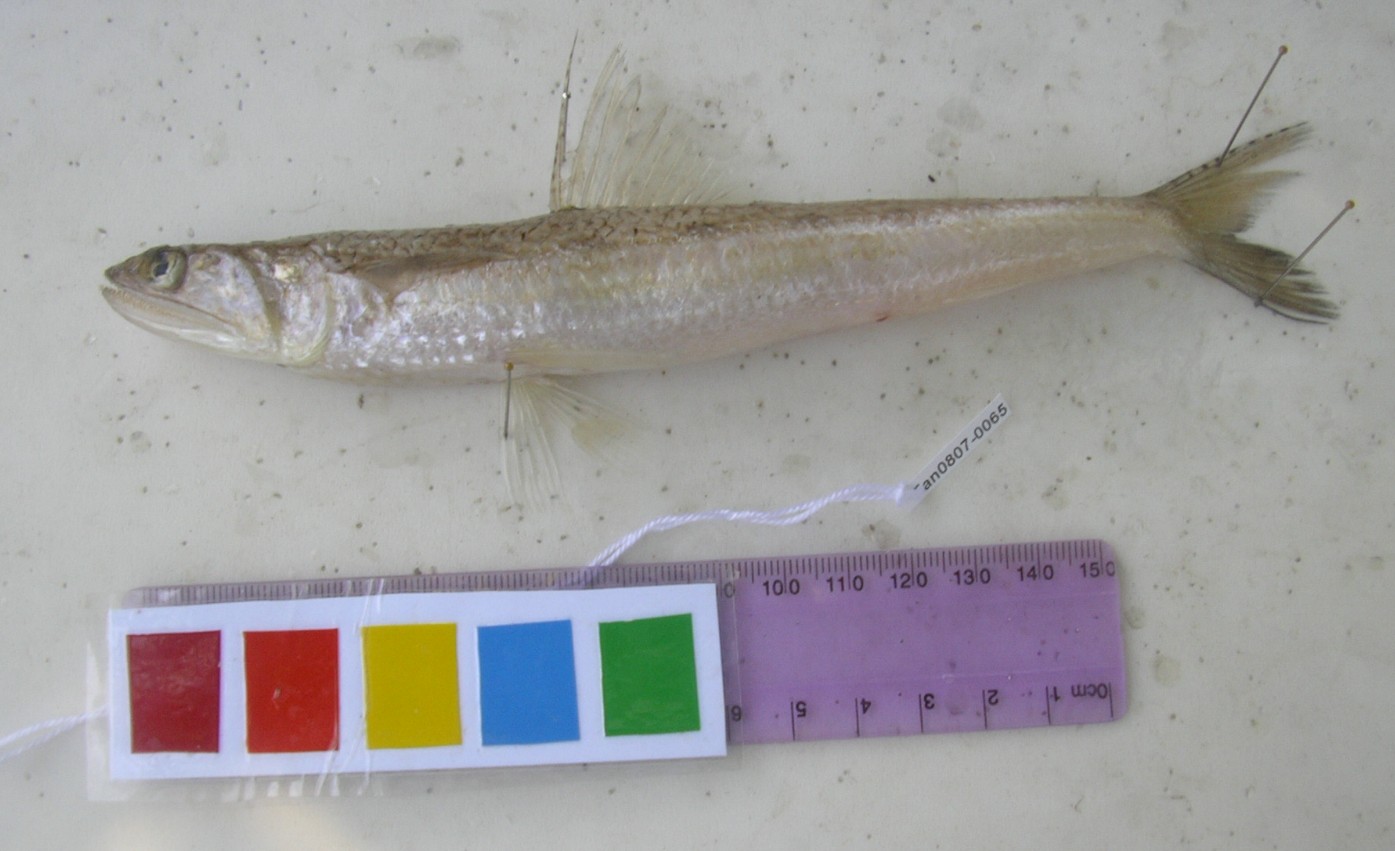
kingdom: Animalia
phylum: Chordata
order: Aulopiformes
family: Synodontidae
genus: Saurida
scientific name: Saurida
